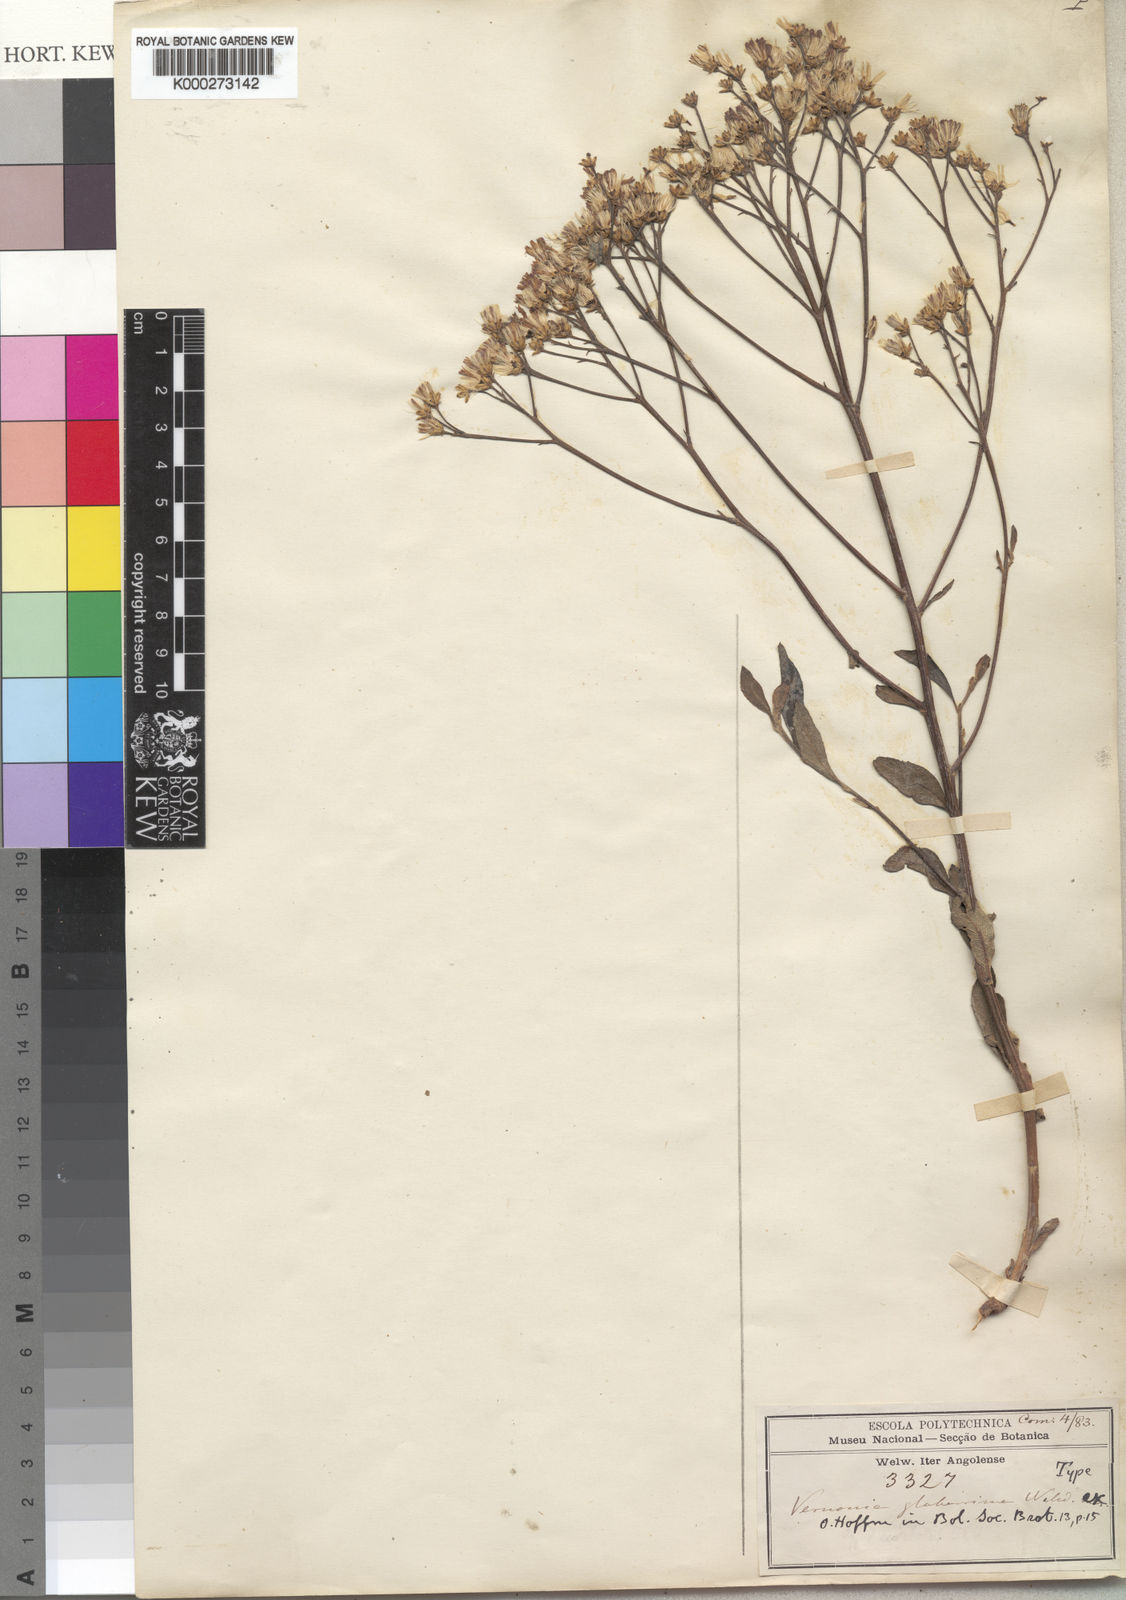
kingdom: Plantae
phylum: Tracheophyta
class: Magnoliopsida
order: Asterales
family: Asteraceae
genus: Gymnanthemum
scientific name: Gymnanthemum glaberrimum
